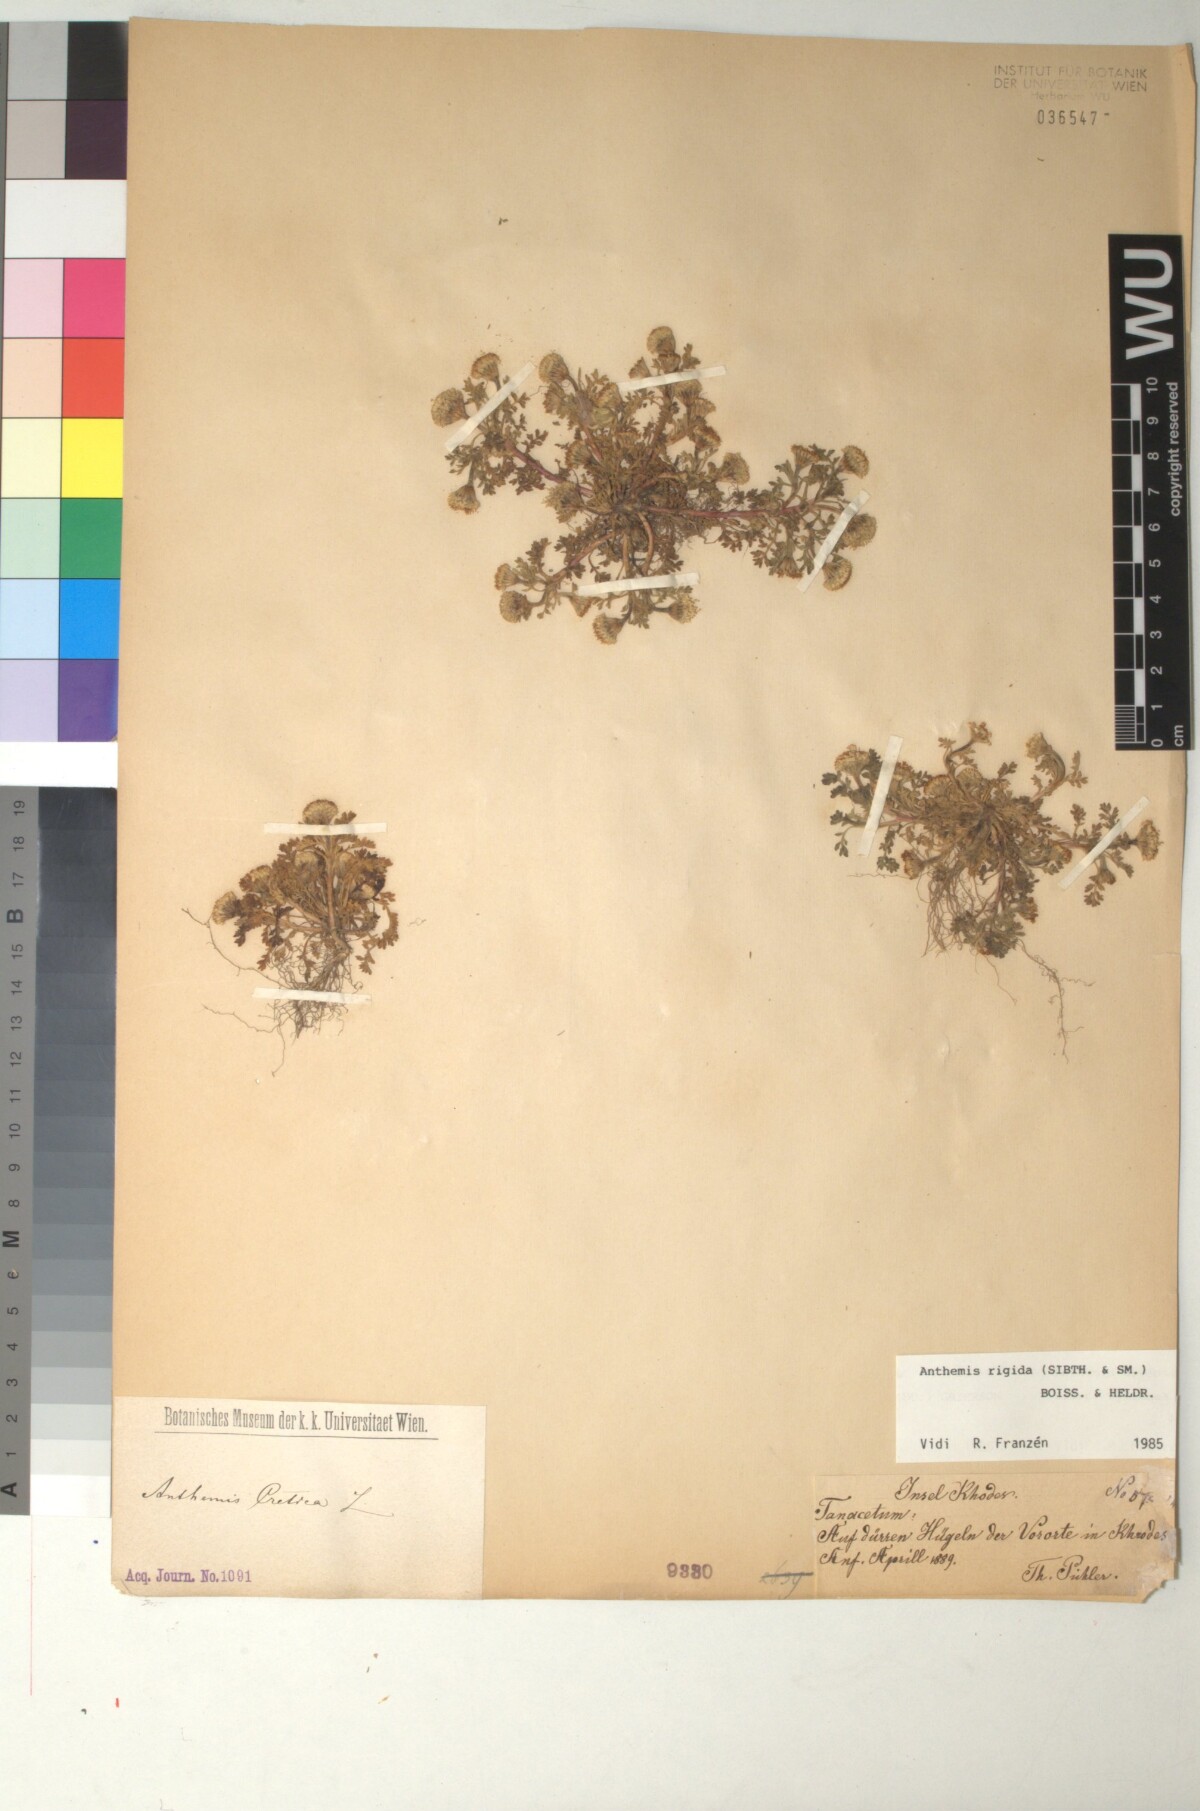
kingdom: Plantae
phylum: Tracheophyta
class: Magnoliopsida
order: Asterales
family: Asteraceae
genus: Anthemis
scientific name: Anthemis rigida
